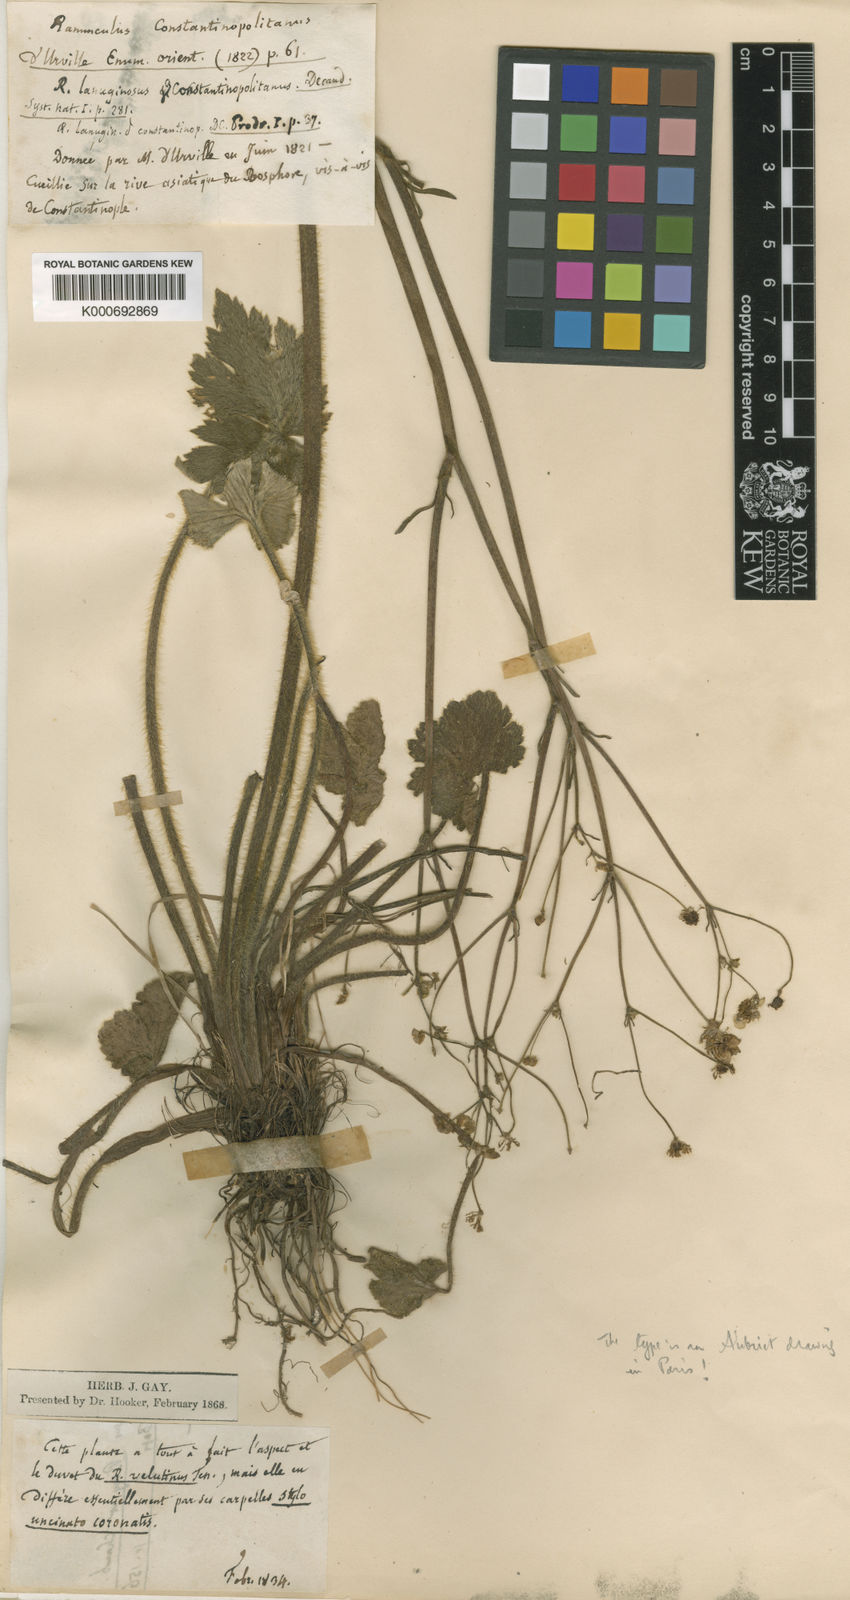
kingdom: Plantae
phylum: Tracheophyta
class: Magnoliopsida
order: Ranunculales
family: Ranunculaceae
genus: Ranunculus
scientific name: Ranunculus constantinopolitanus
